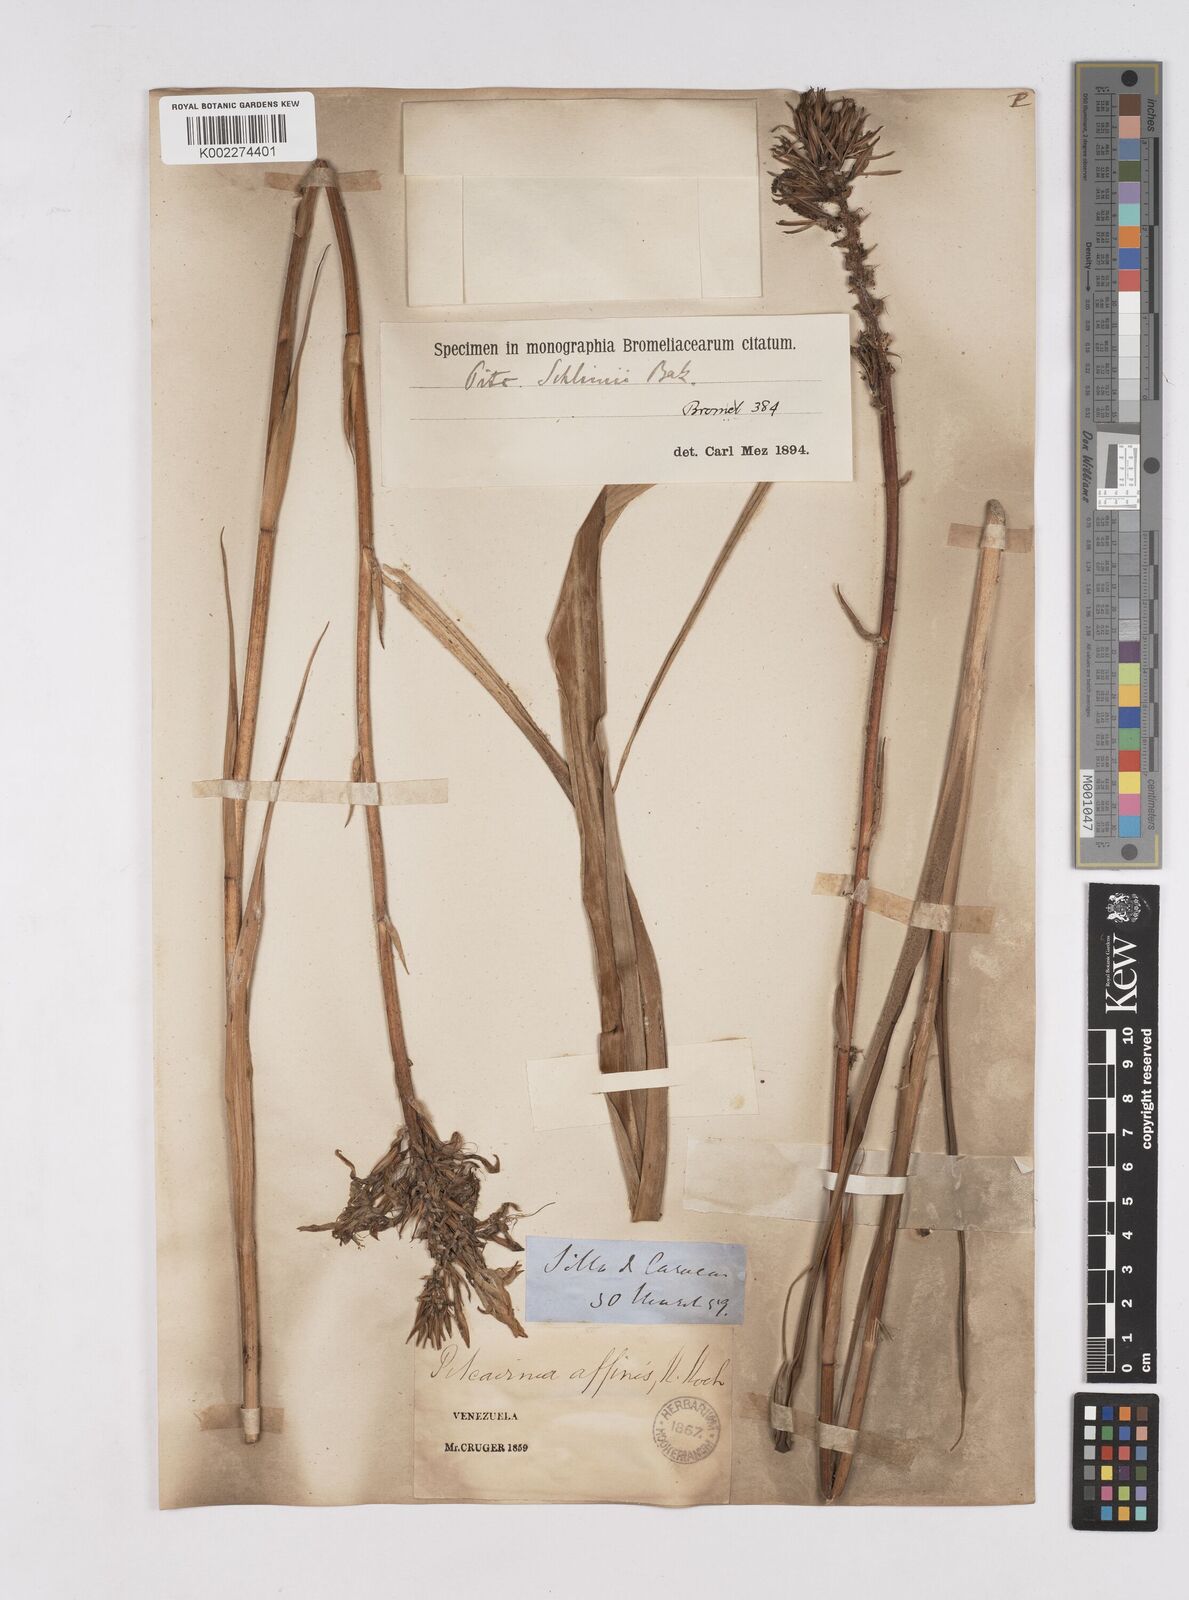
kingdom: Plantae
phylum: Tracheophyta
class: Liliopsida
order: Poales
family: Bromeliaceae
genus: Pitcairnia
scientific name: Pitcairnia microcalyx
